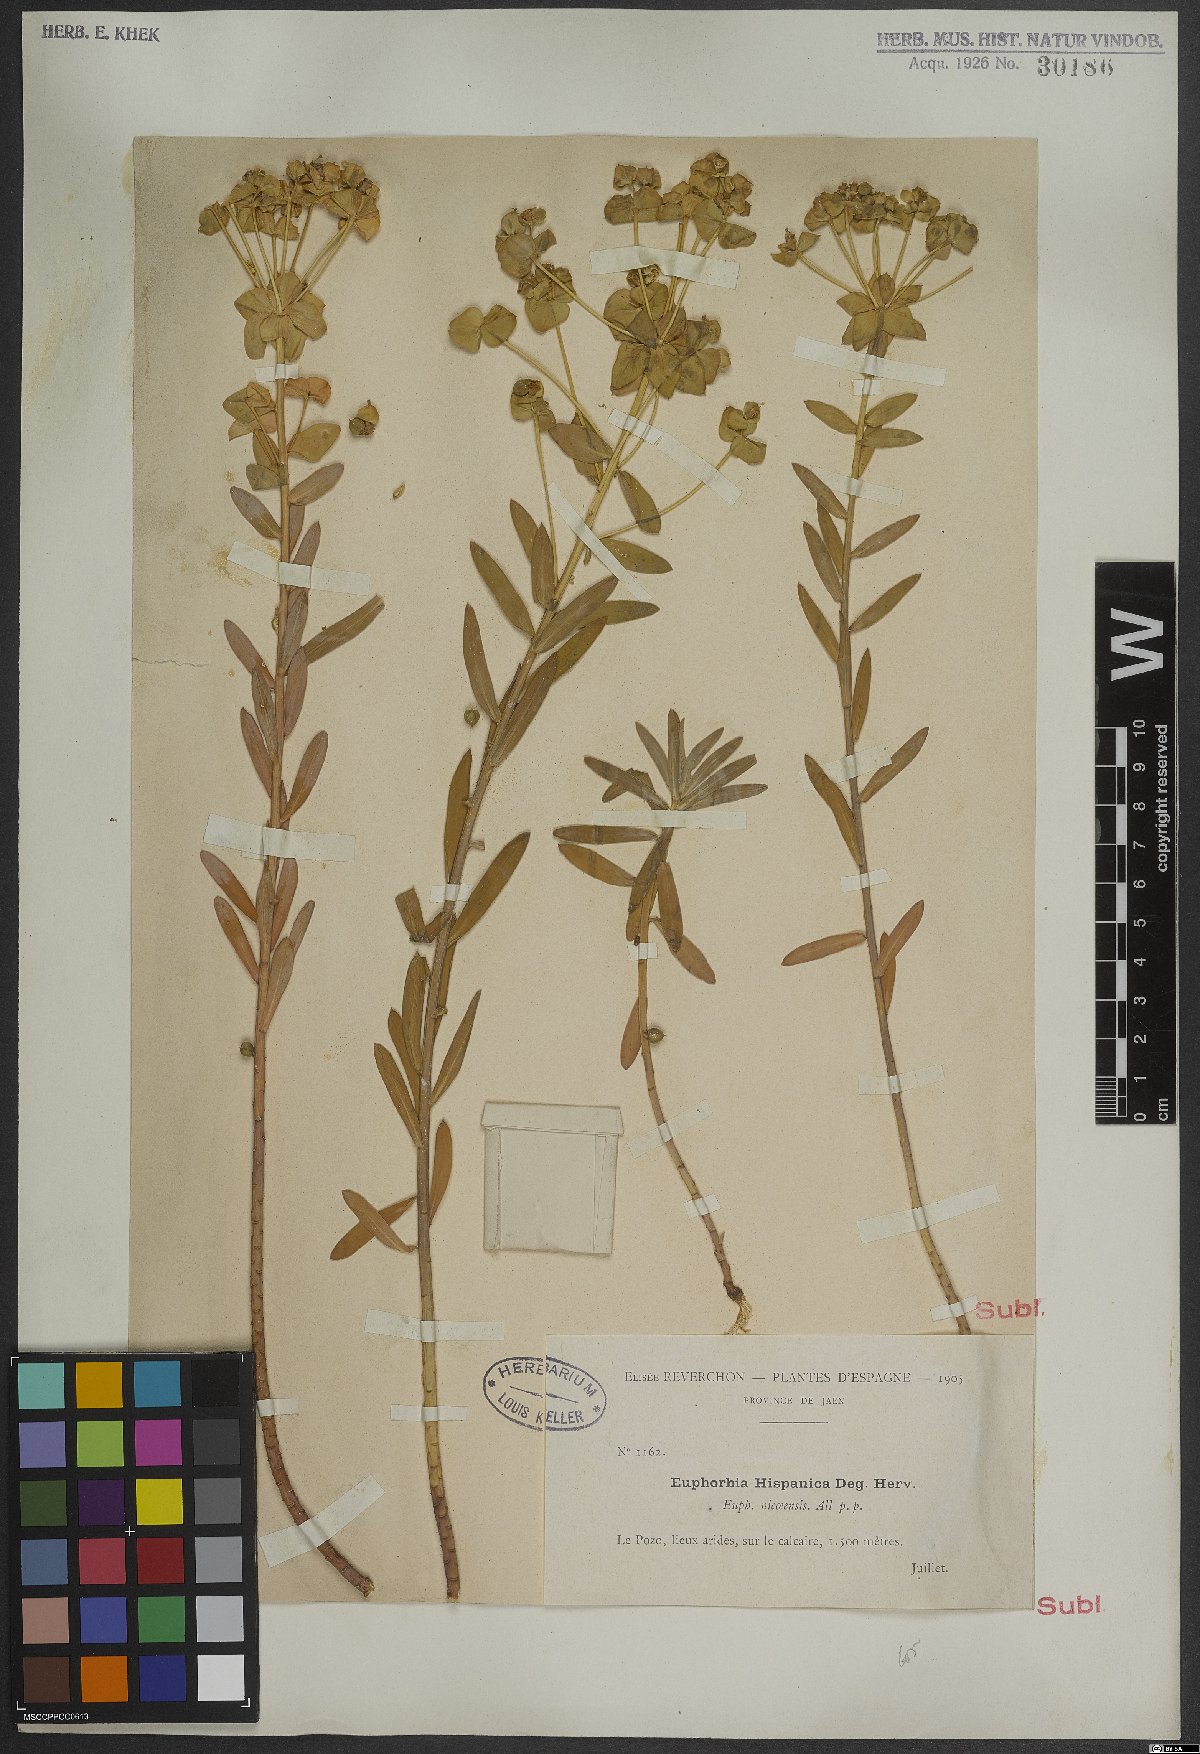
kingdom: Plantae
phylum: Tracheophyta
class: Magnoliopsida
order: Malpighiales
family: Euphorbiaceae
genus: Euphorbia
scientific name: Euphorbia nicaeensis
